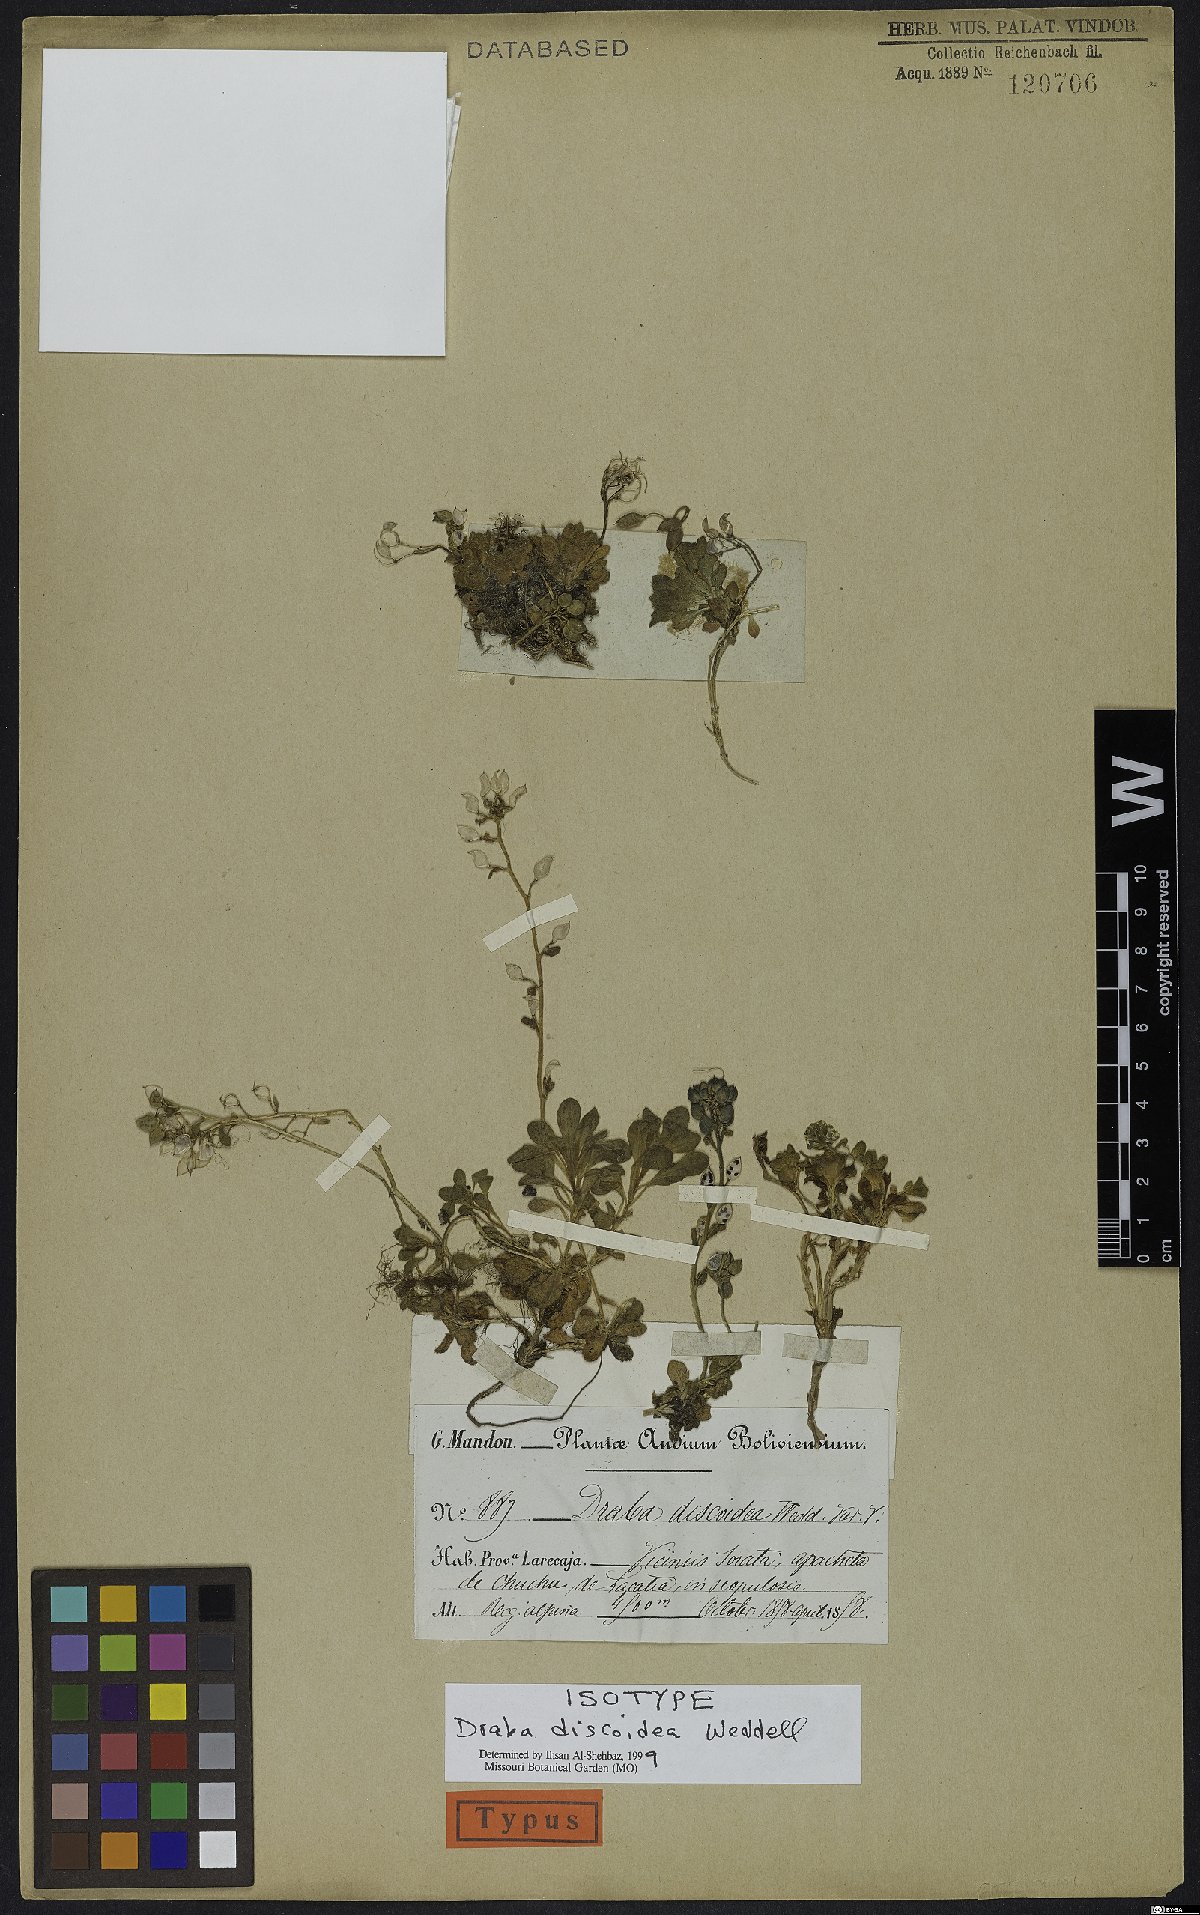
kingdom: Plantae
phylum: Tracheophyta
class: Magnoliopsida
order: Brassicales
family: Brassicaceae
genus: Draba
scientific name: Draba discoidea
